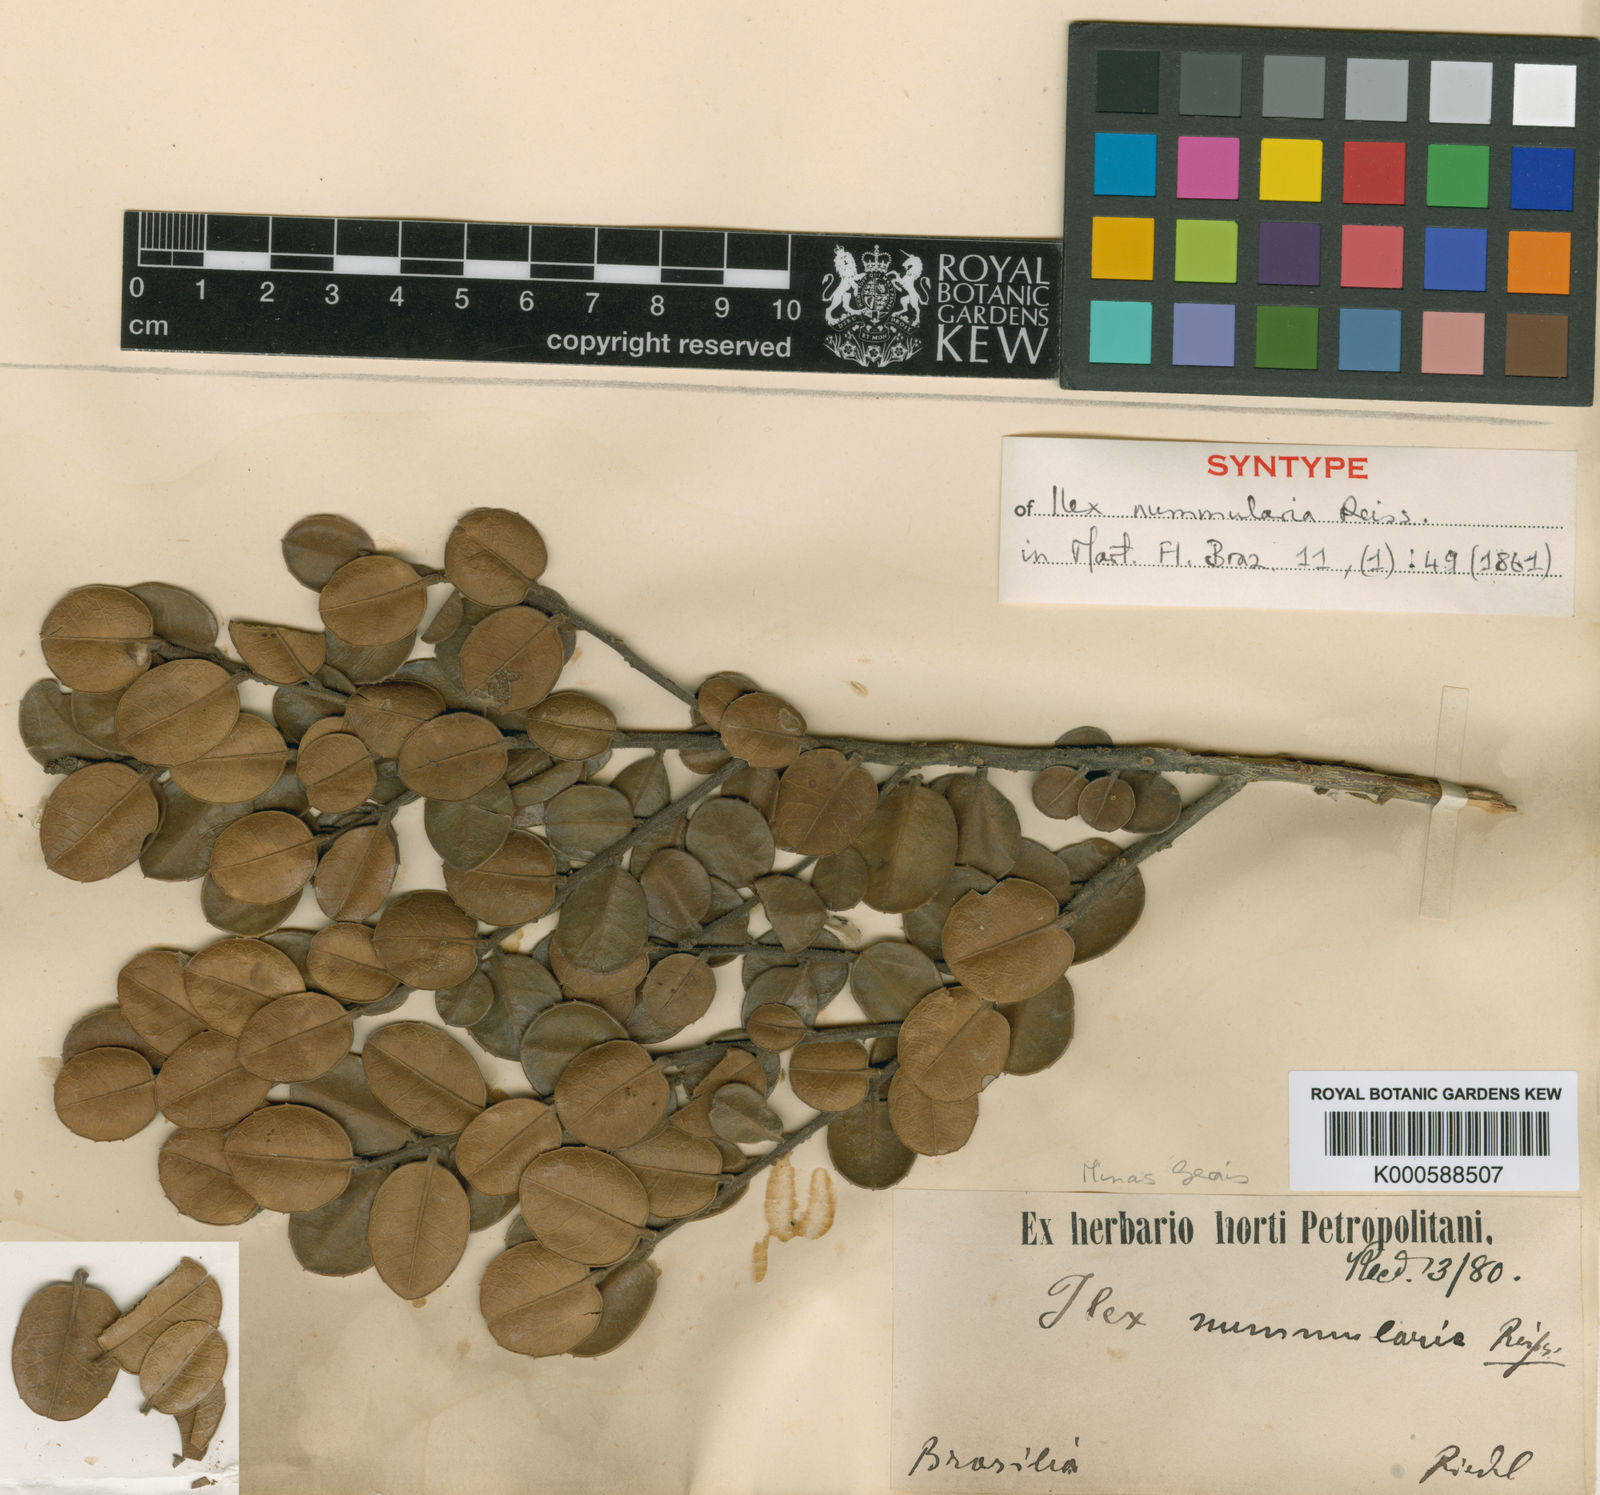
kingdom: Plantae
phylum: Tracheophyta
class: Magnoliopsida
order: Aquifoliales
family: Aquifoliaceae
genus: Ilex
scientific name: Ilex nummularia
